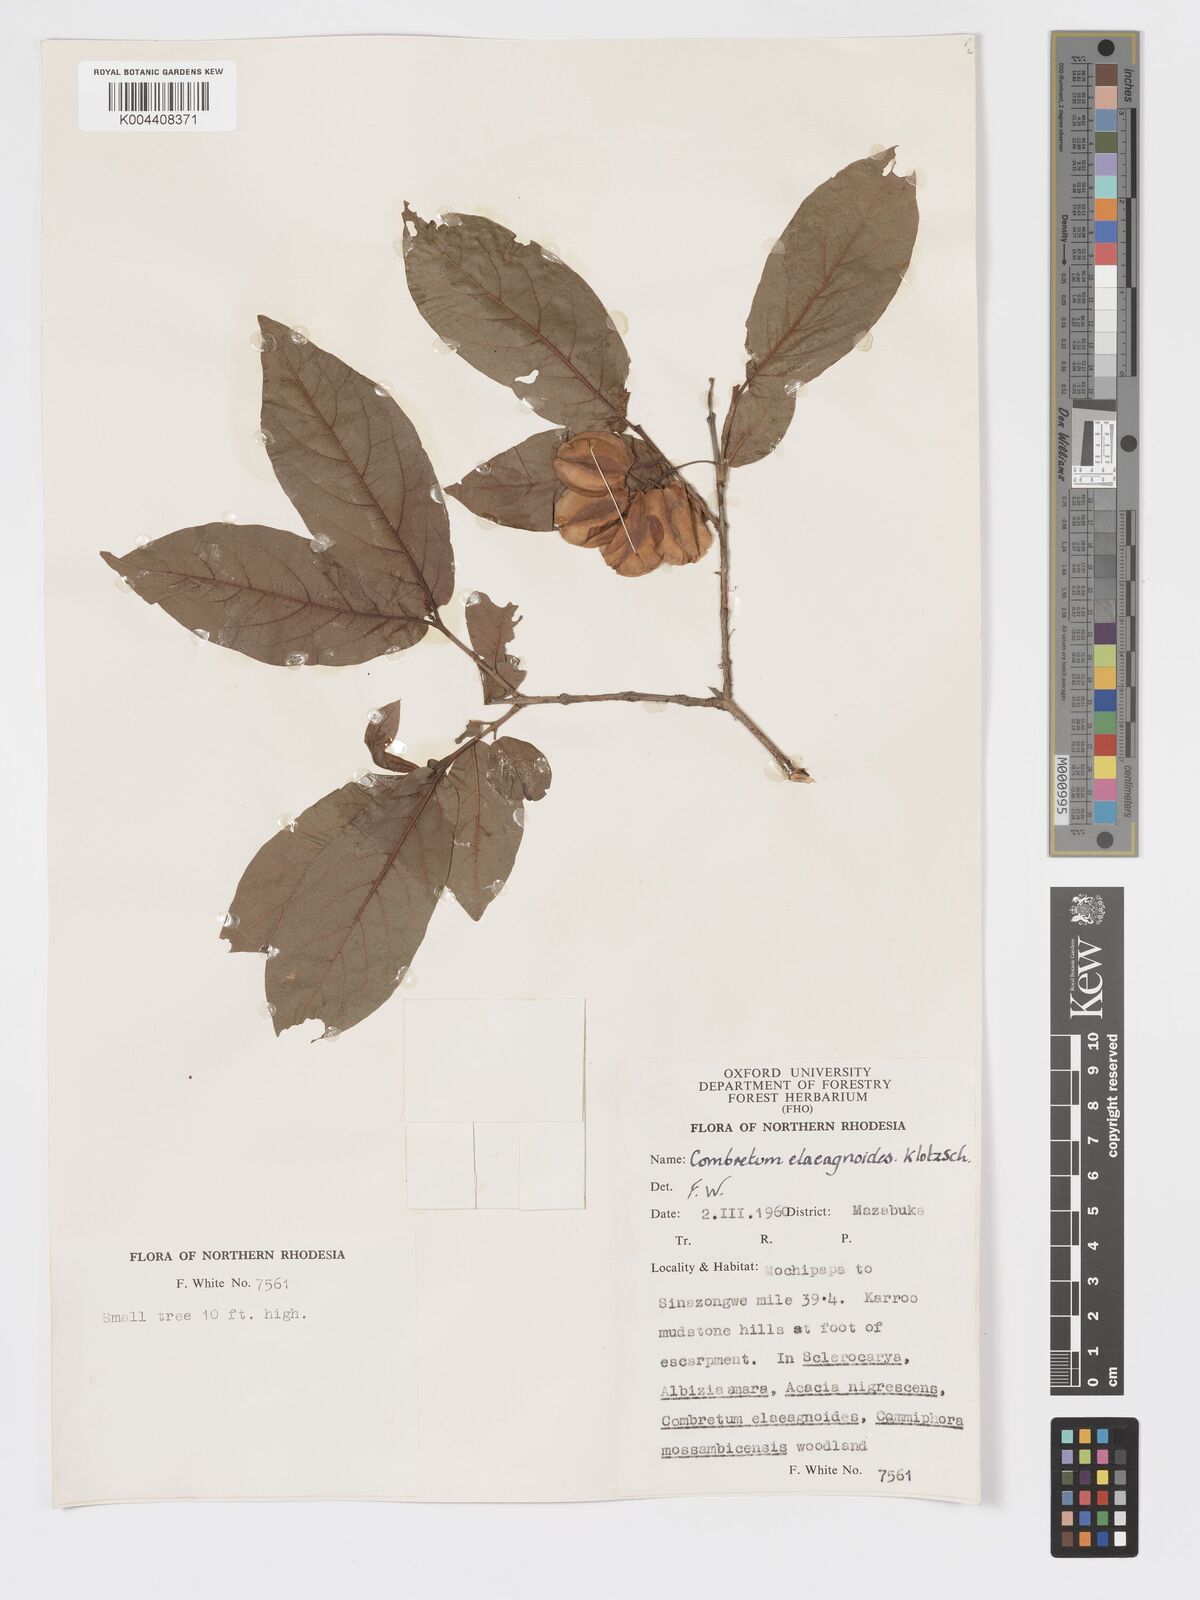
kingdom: Plantae
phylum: Tracheophyta
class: Magnoliopsida
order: Myrtales
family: Combretaceae
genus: Combretum
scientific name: Combretum elaeagnoides
